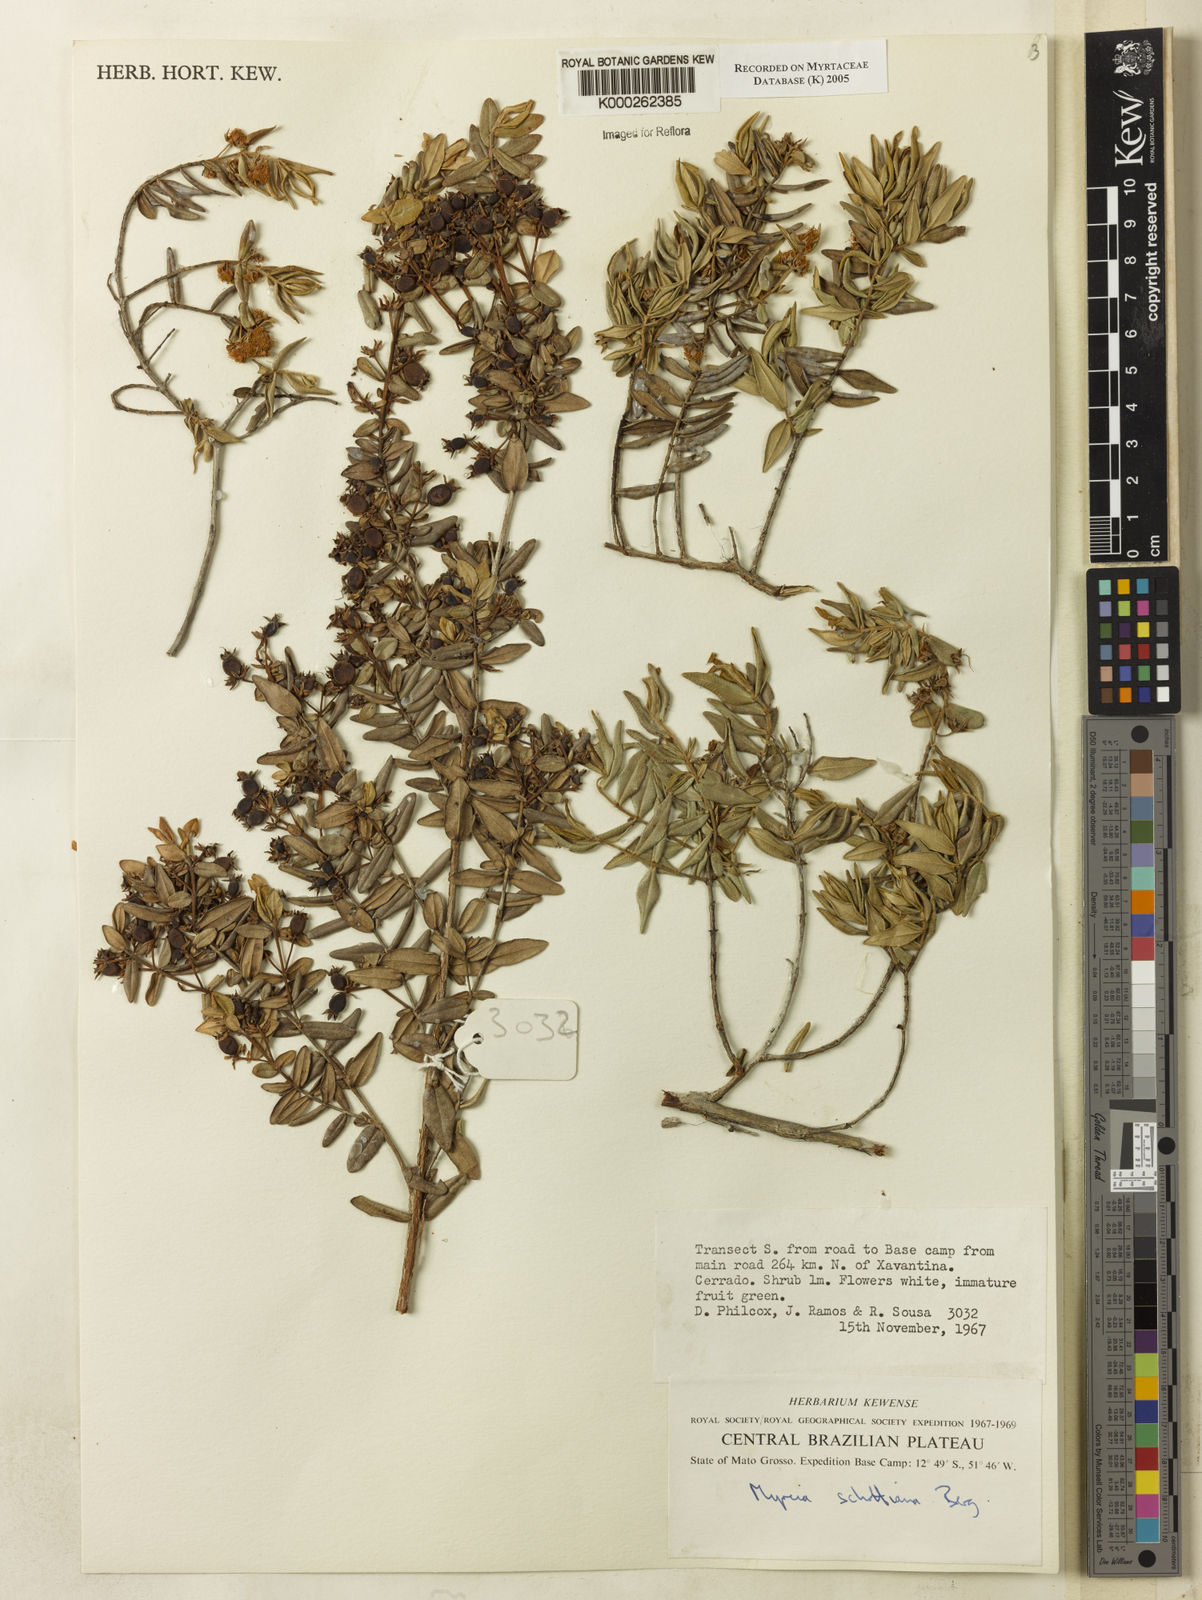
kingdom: Plantae
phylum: Tracheophyta
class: Magnoliopsida
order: Myrtales
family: Myrtaceae
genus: Myrcia
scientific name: Myrcia schottiana
